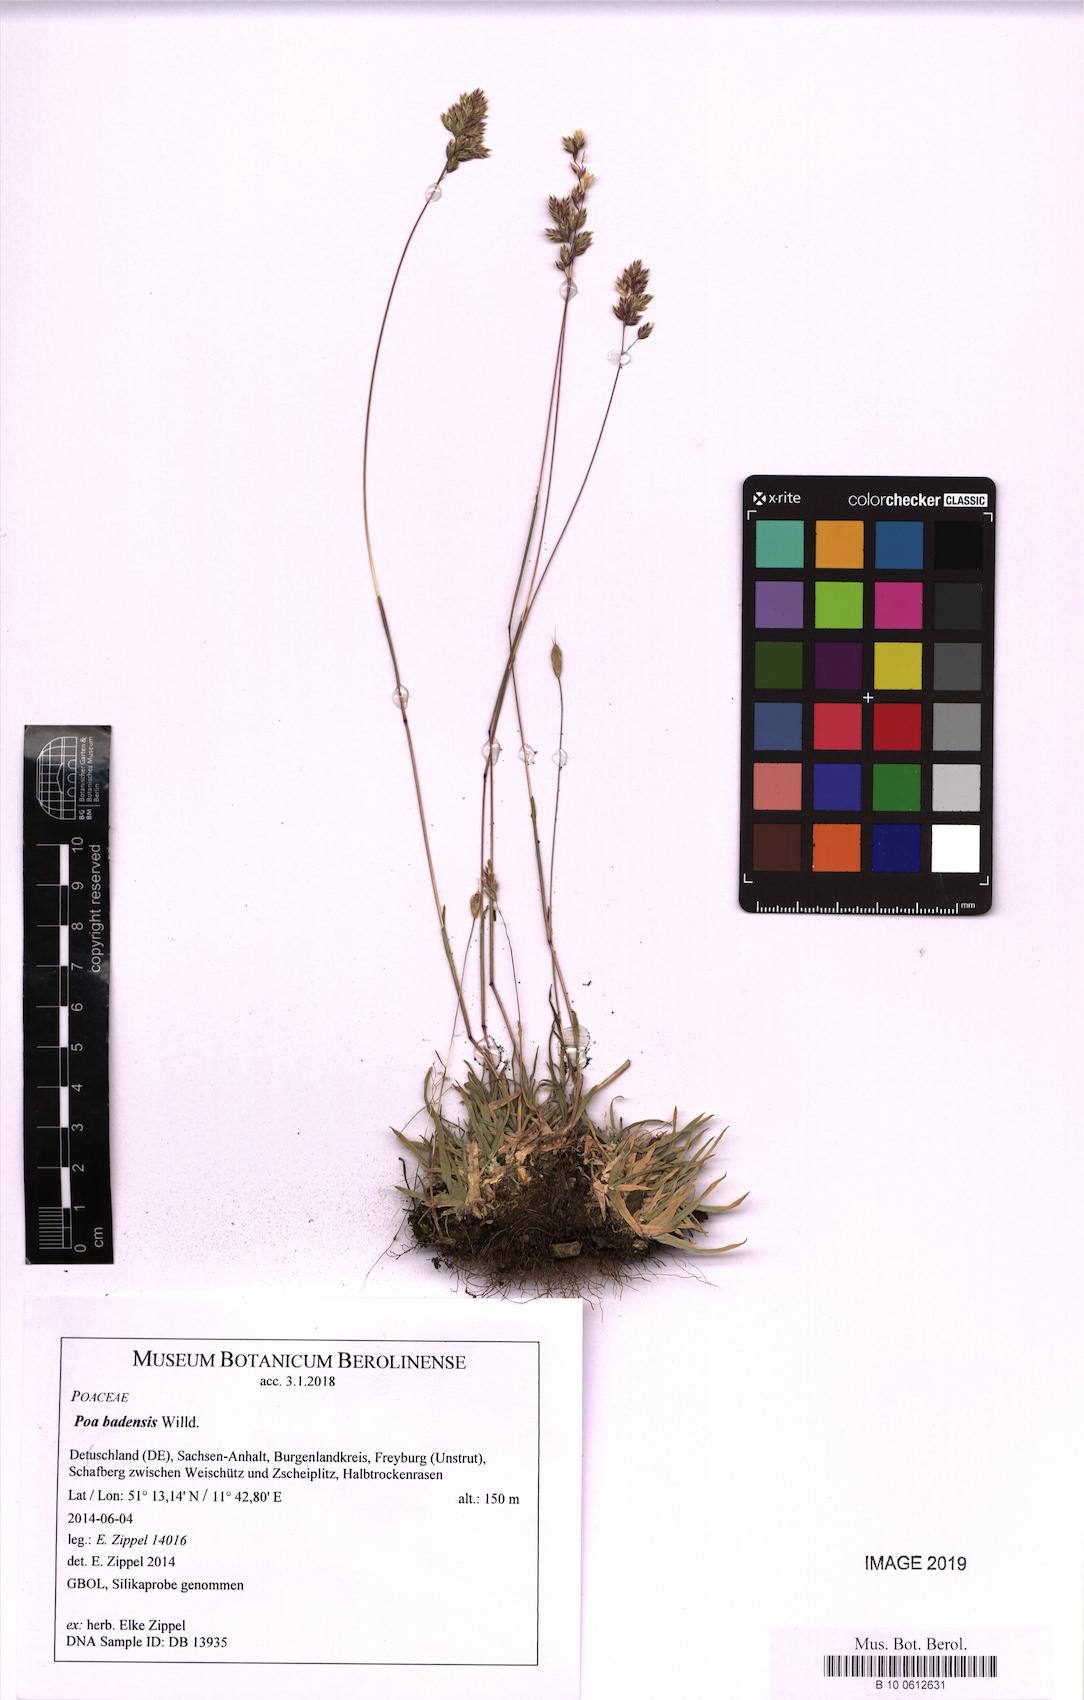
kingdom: Plantae
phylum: Tracheophyta
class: Liliopsida
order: Poales
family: Poaceae
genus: Poa
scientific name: Poa badensis
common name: Baden's bluegrass
